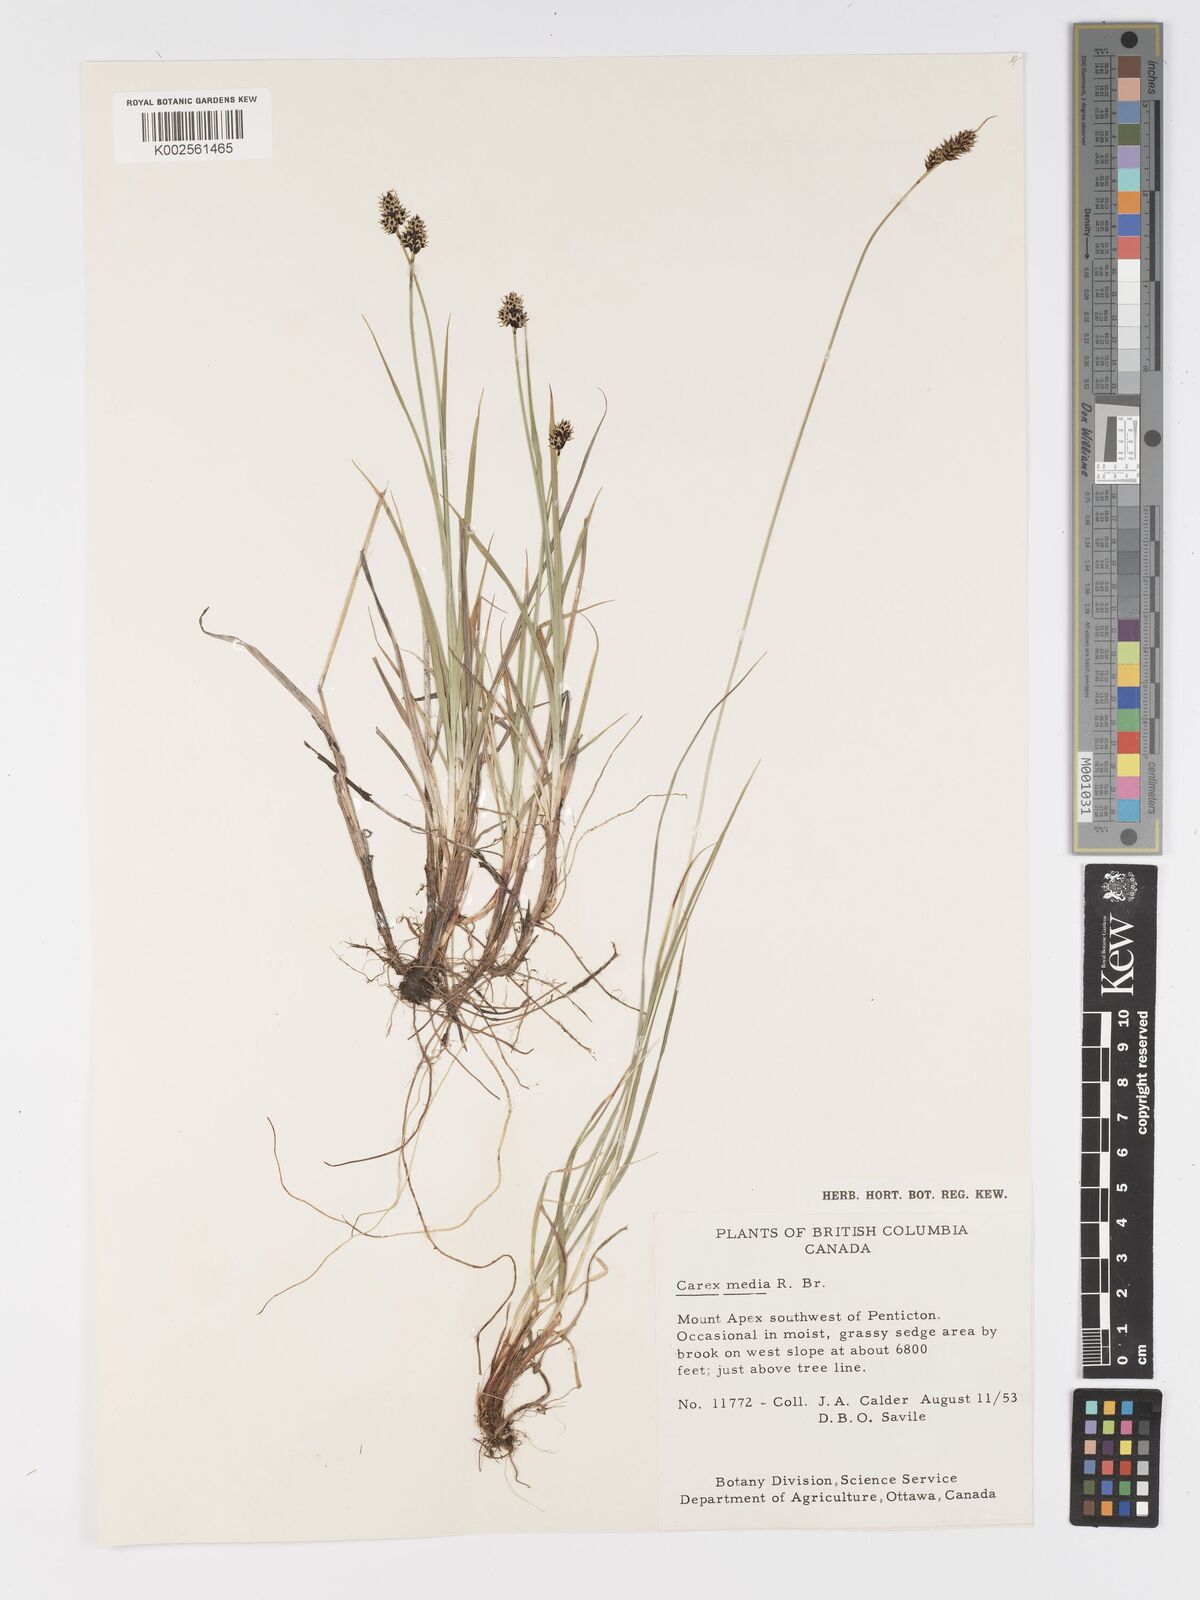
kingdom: Plantae
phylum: Tracheophyta
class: Liliopsida
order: Poales
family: Cyperaceae
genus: Carex
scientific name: Carex media
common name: Alpine sedge
